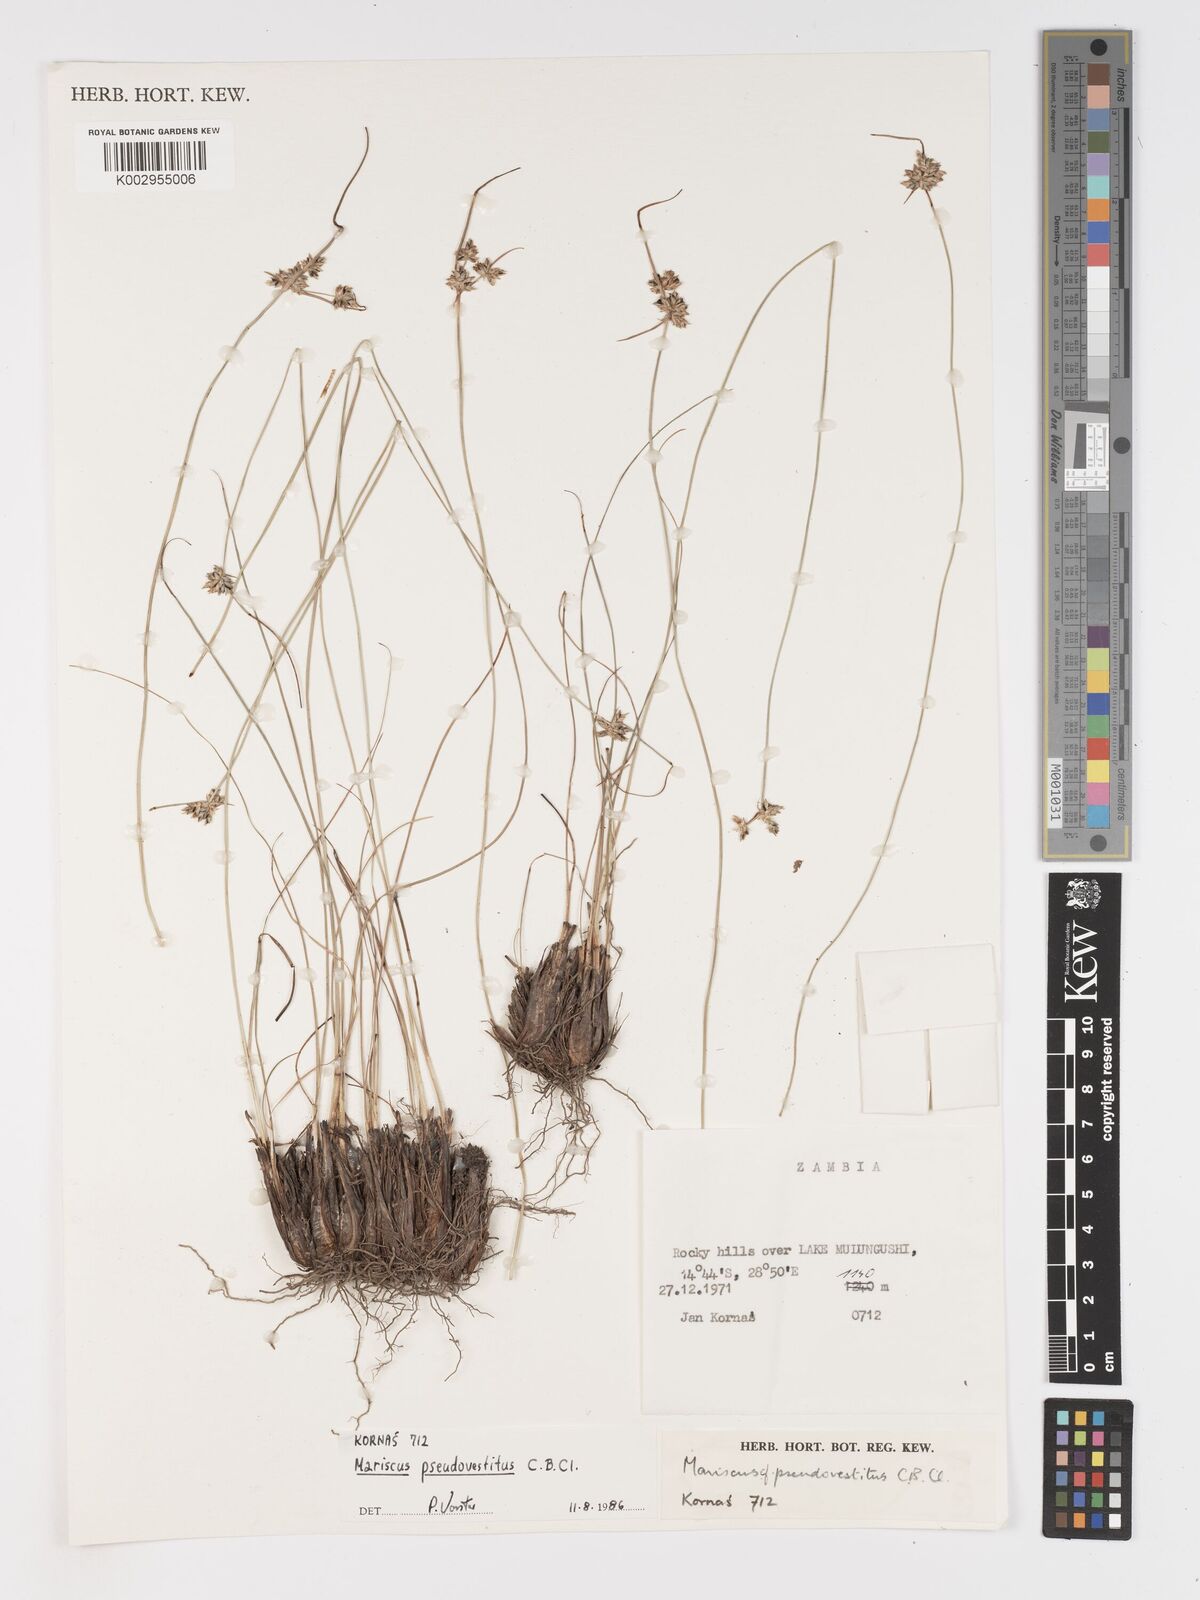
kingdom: Plantae
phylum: Tracheophyta
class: Liliopsida
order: Poales
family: Cyperaceae
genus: Cyperus
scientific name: Cyperus pseudovestitus
